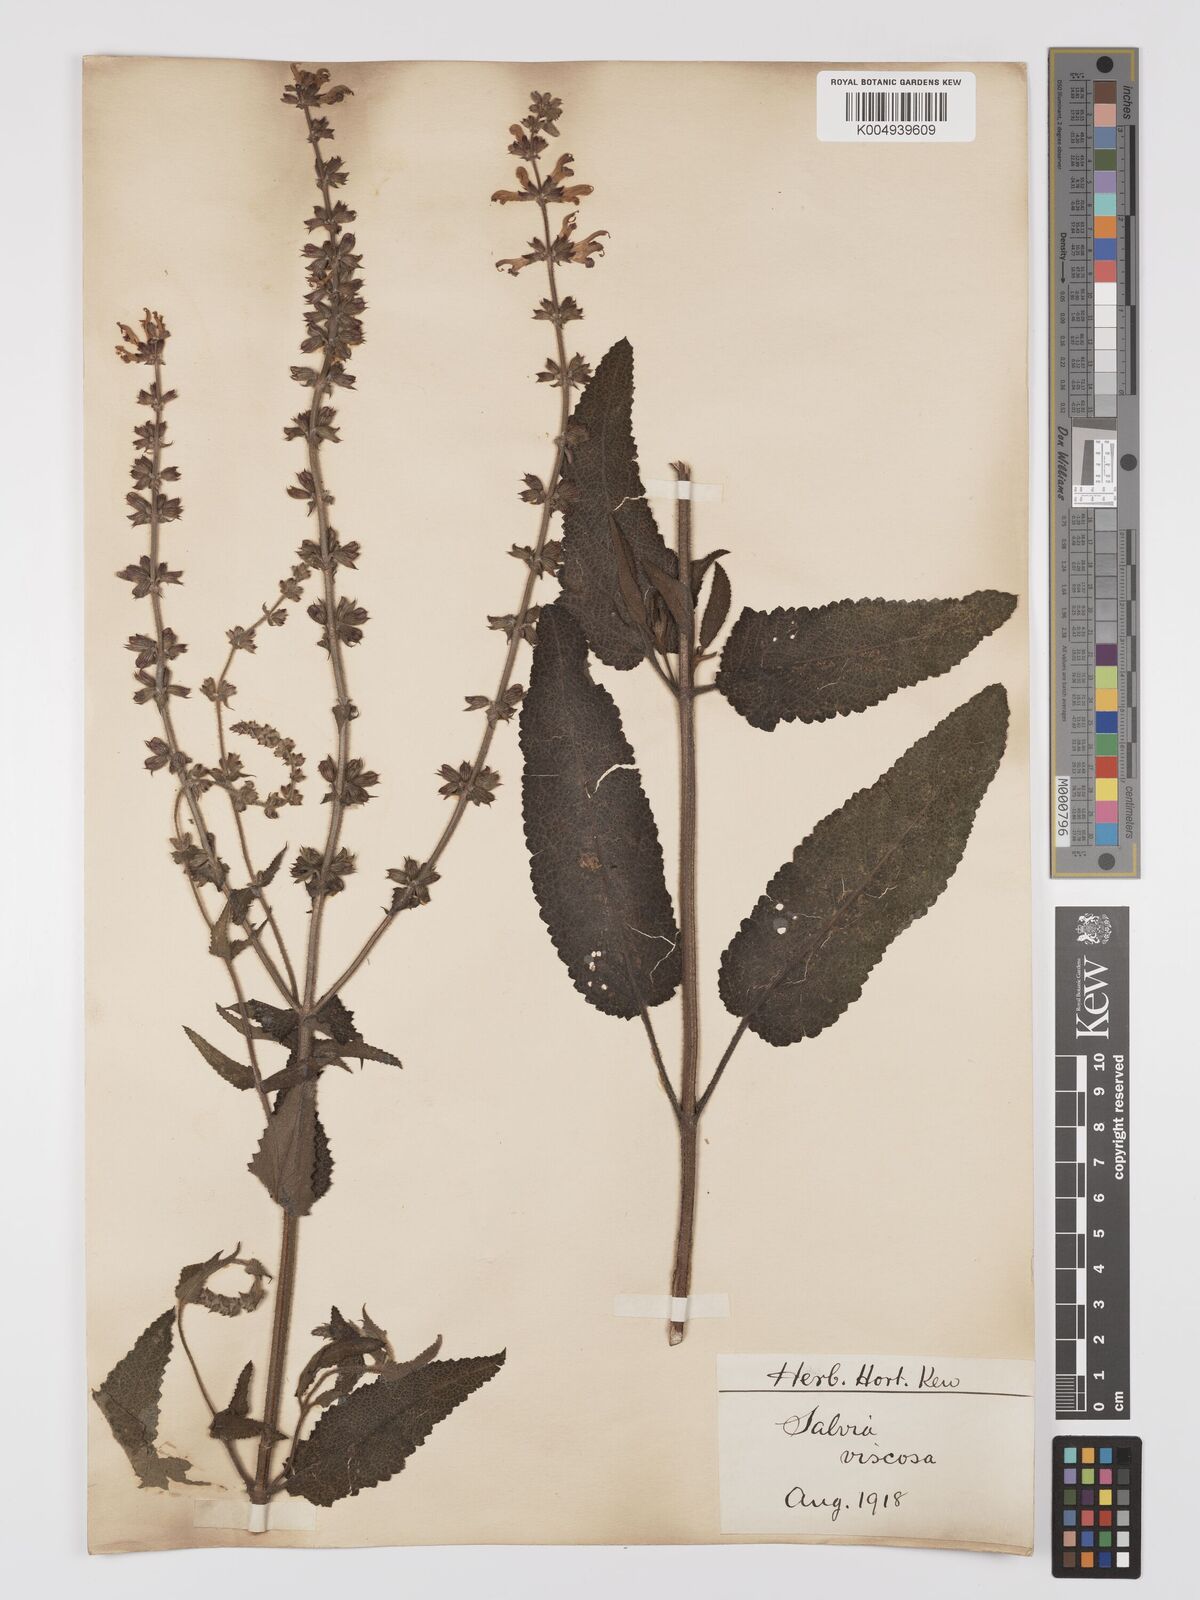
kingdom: Plantae
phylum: Tracheophyta
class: Magnoliopsida
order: Lamiales
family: Lamiaceae
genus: Salvia
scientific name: Salvia
